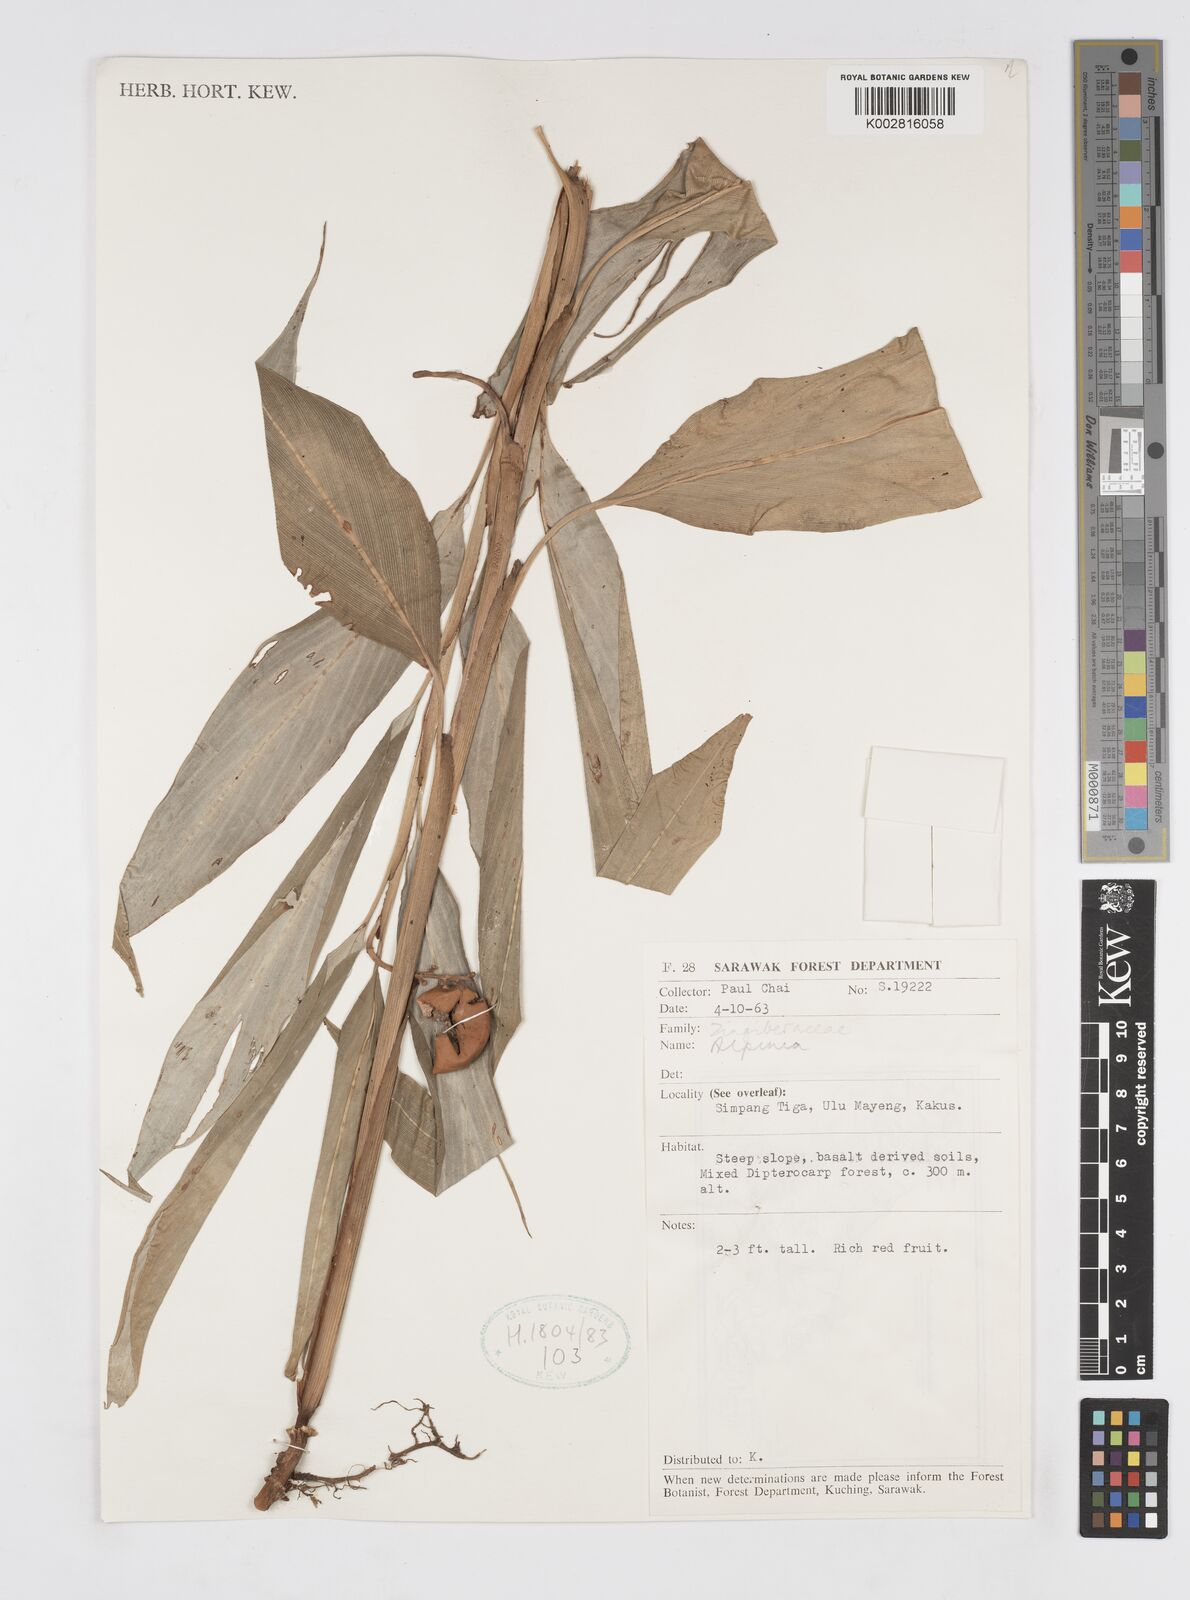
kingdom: Plantae
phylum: Tracheophyta
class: Liliopsida
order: Zingiberales
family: Zingiberaceae
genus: Alpinia
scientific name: Alpinia
